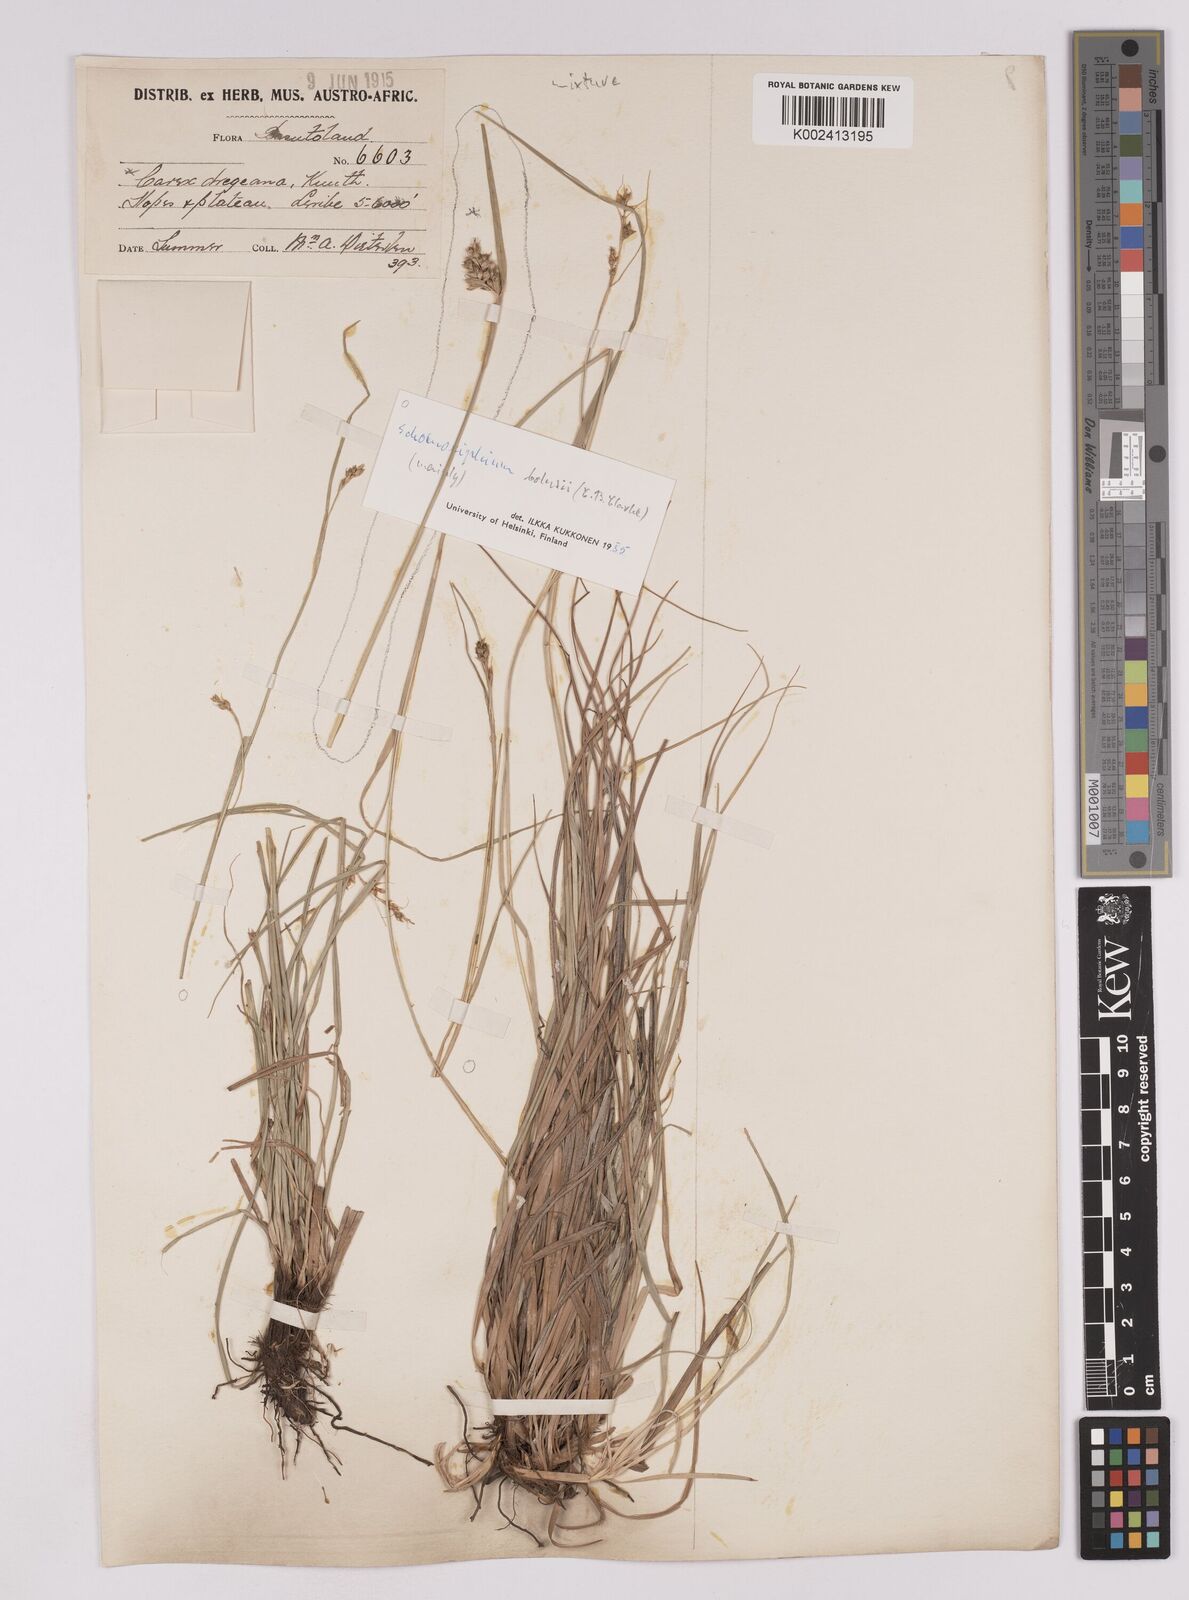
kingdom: Plantae
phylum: Tracheophyta
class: Liliopsida
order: Poales
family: Cyperaceae
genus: Carex
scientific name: Carex spartea
